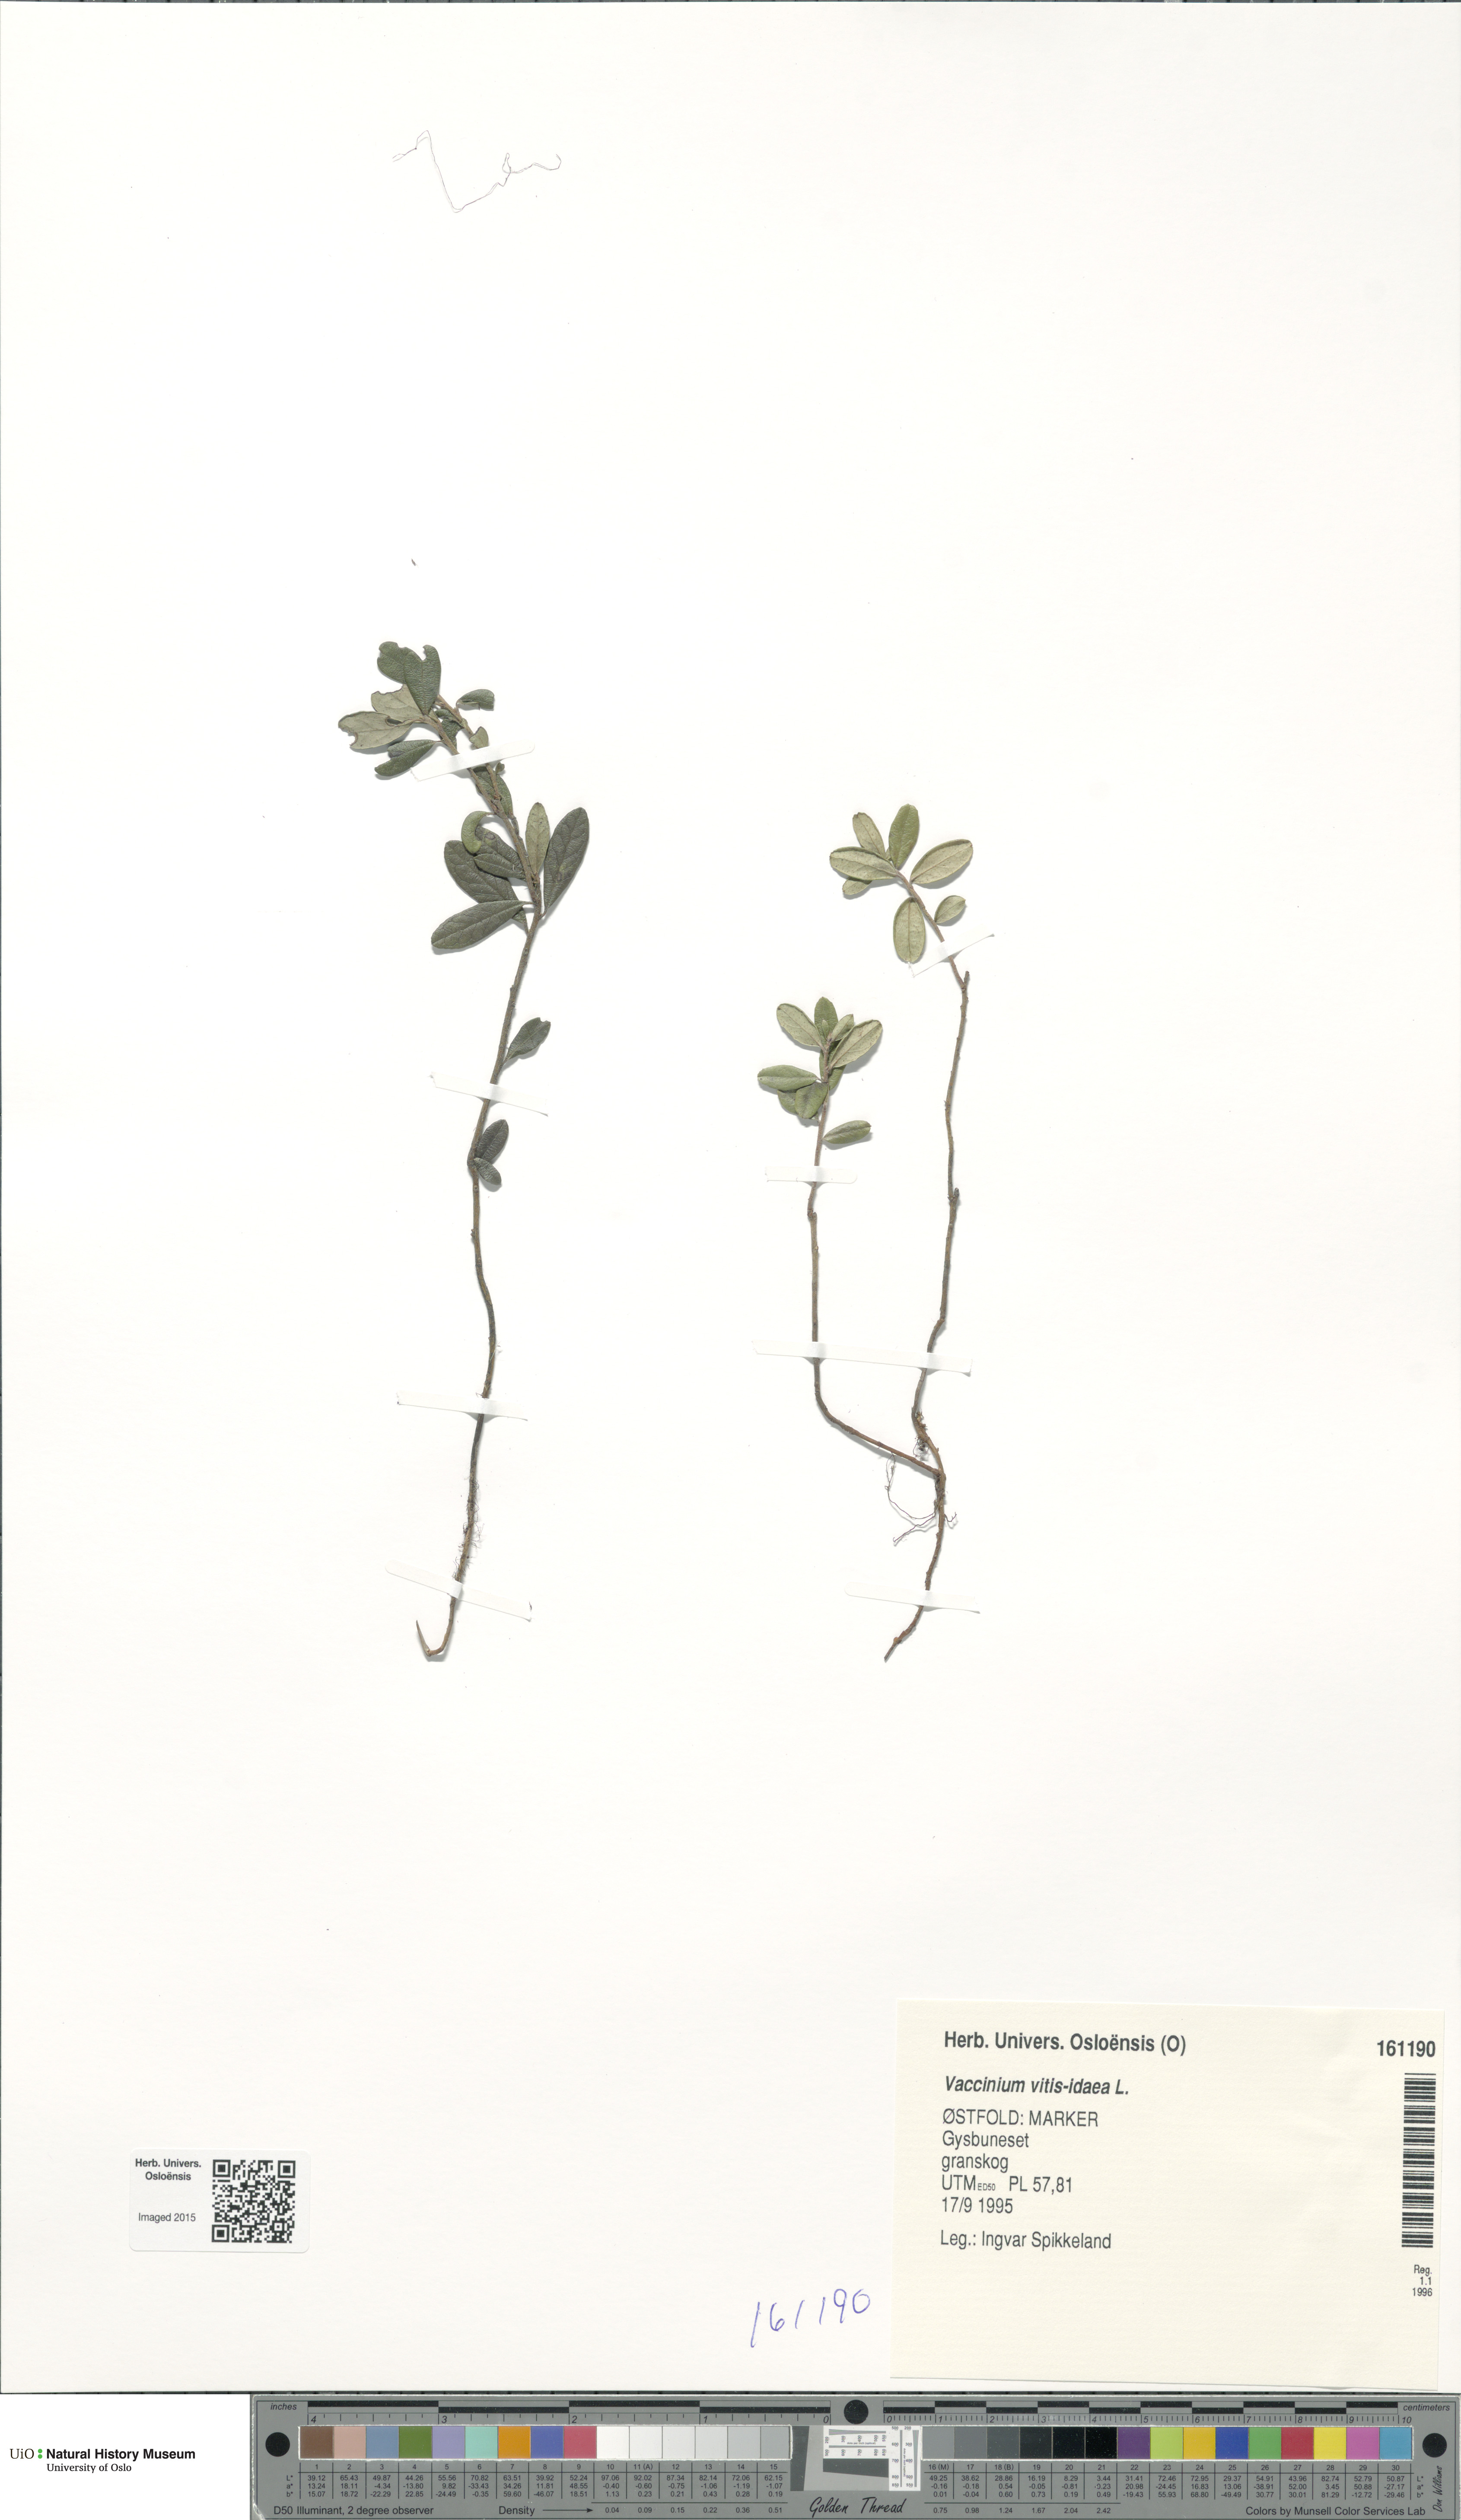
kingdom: Plantae
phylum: Tracheophyta
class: Magnoliopsida
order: Ericales
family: Ericaceae
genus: Vaccinium
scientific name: Vaccinium vitis-idaea
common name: Cowberry
